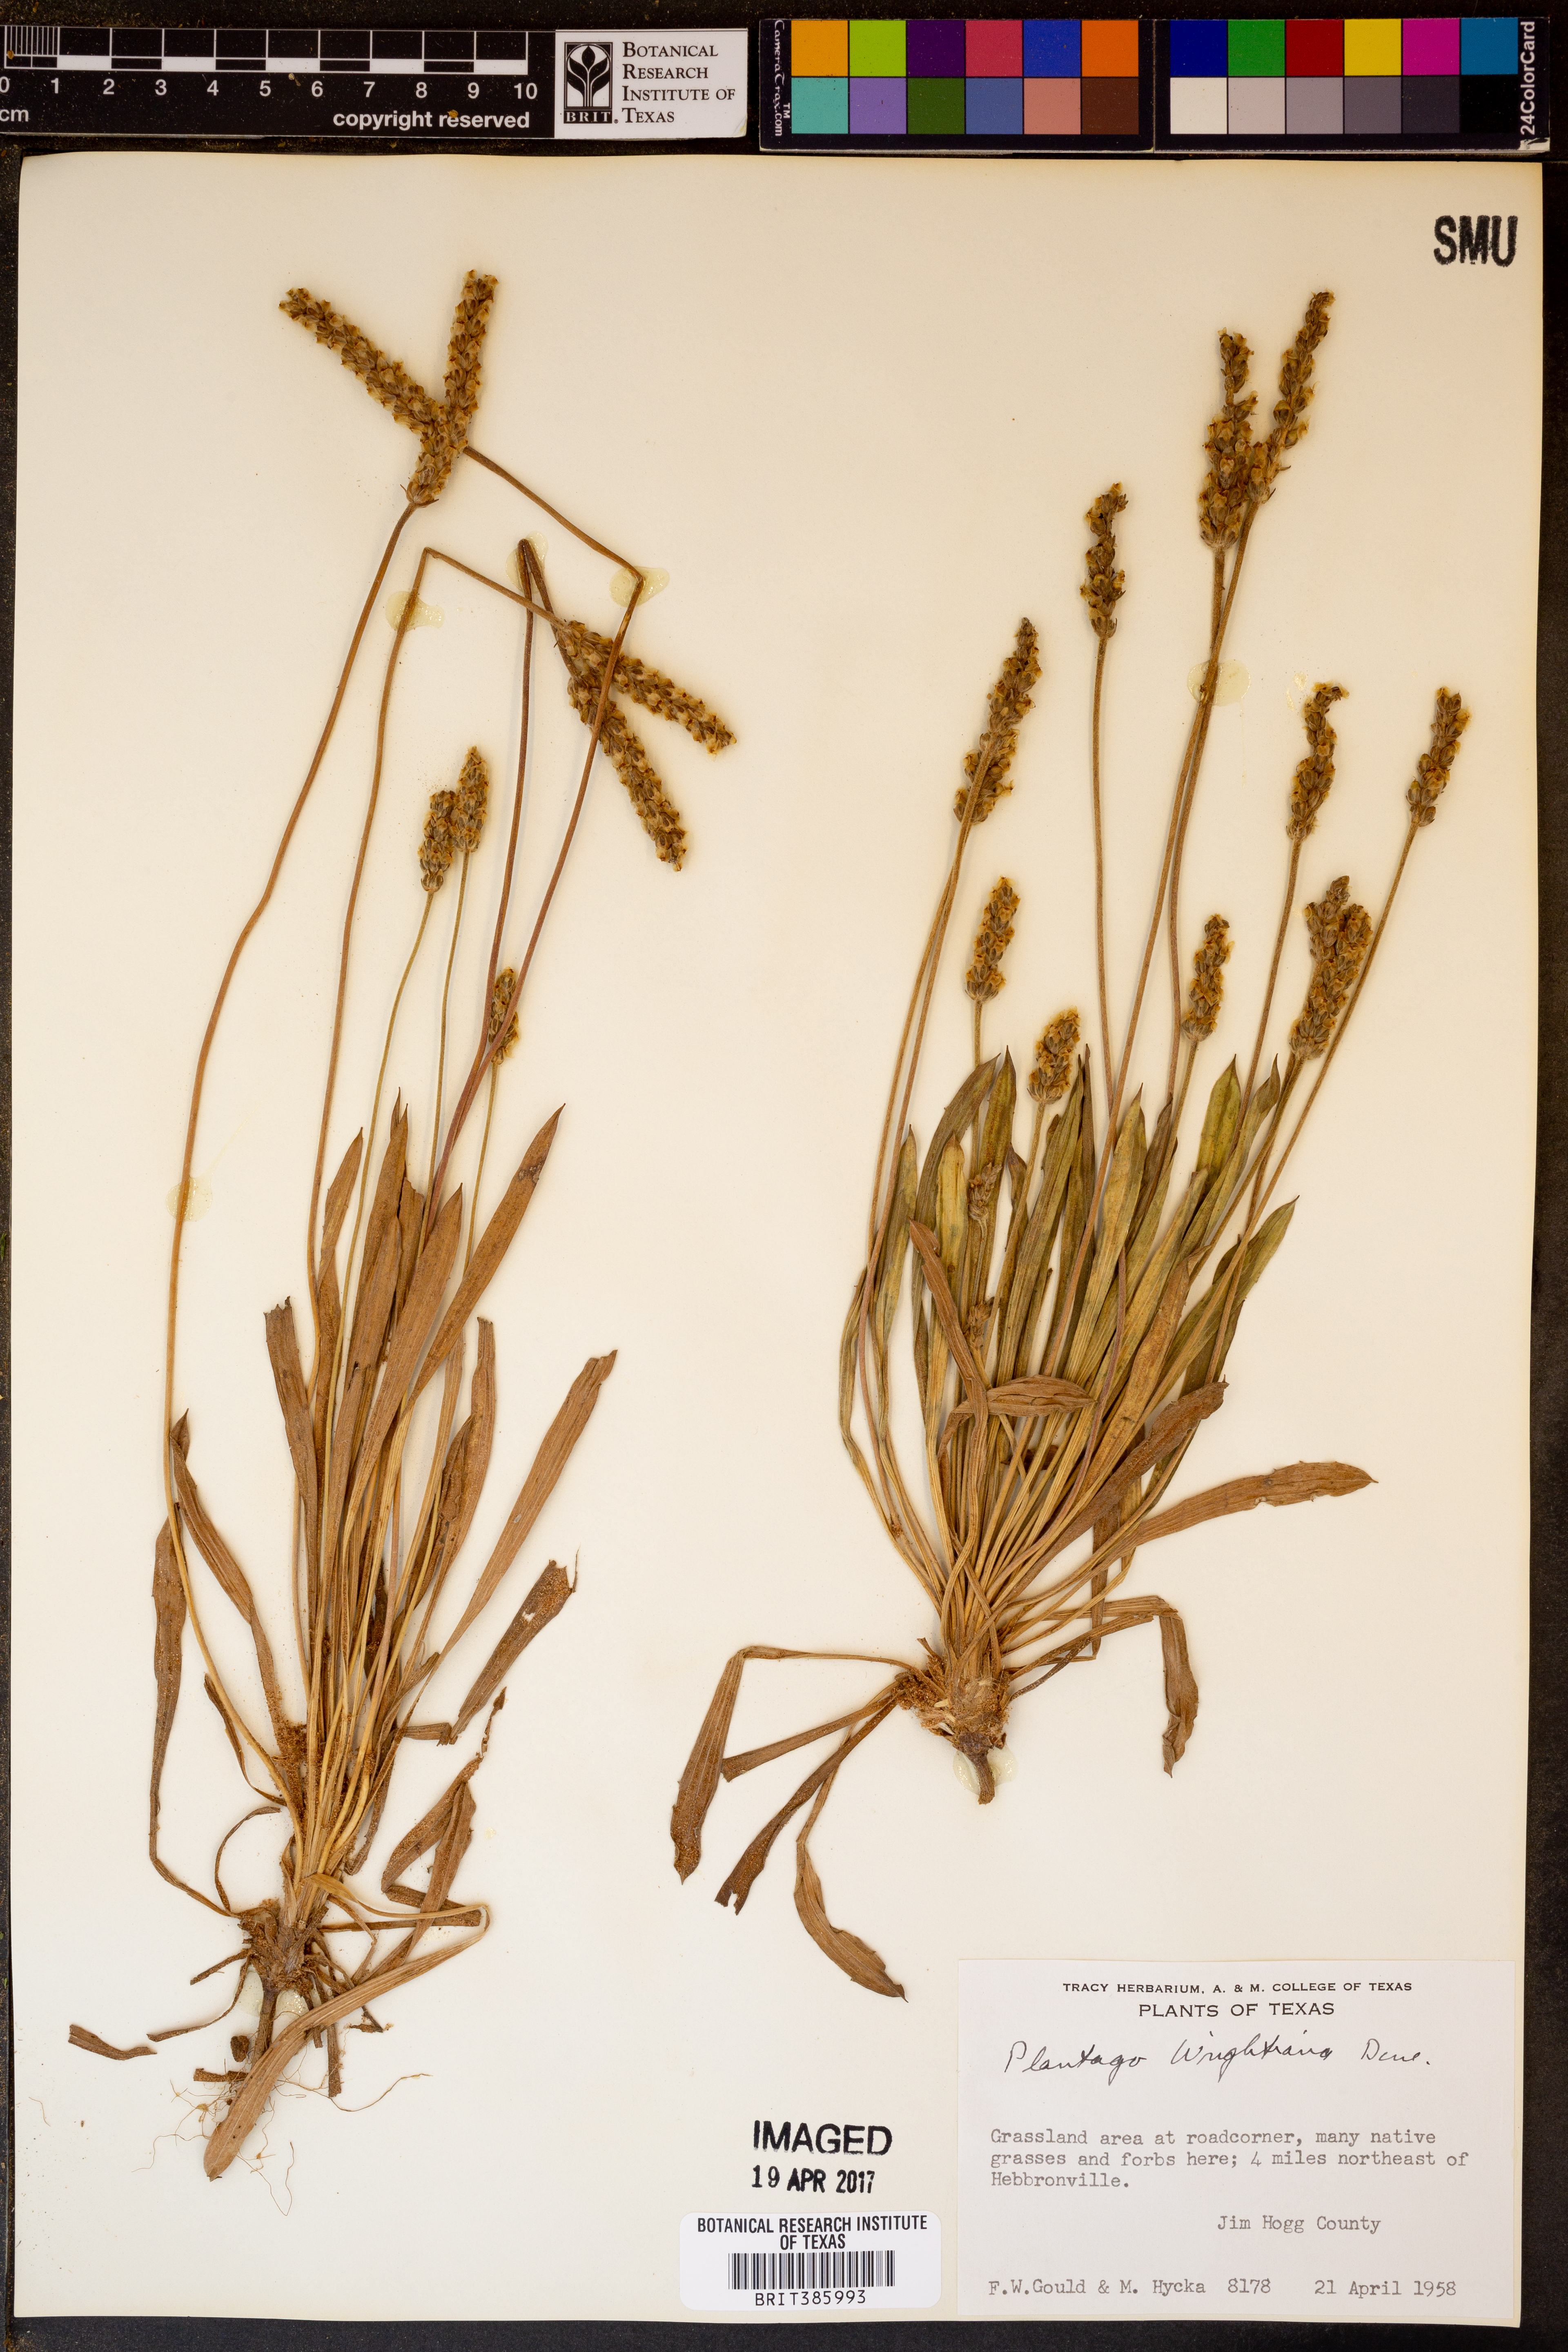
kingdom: Plantae
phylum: Tracheophyta
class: Magnoliopsida
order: Lamiales
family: Plantaginaceae
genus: Plantago
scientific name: Plantago wrightiana
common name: Wright's plantain
